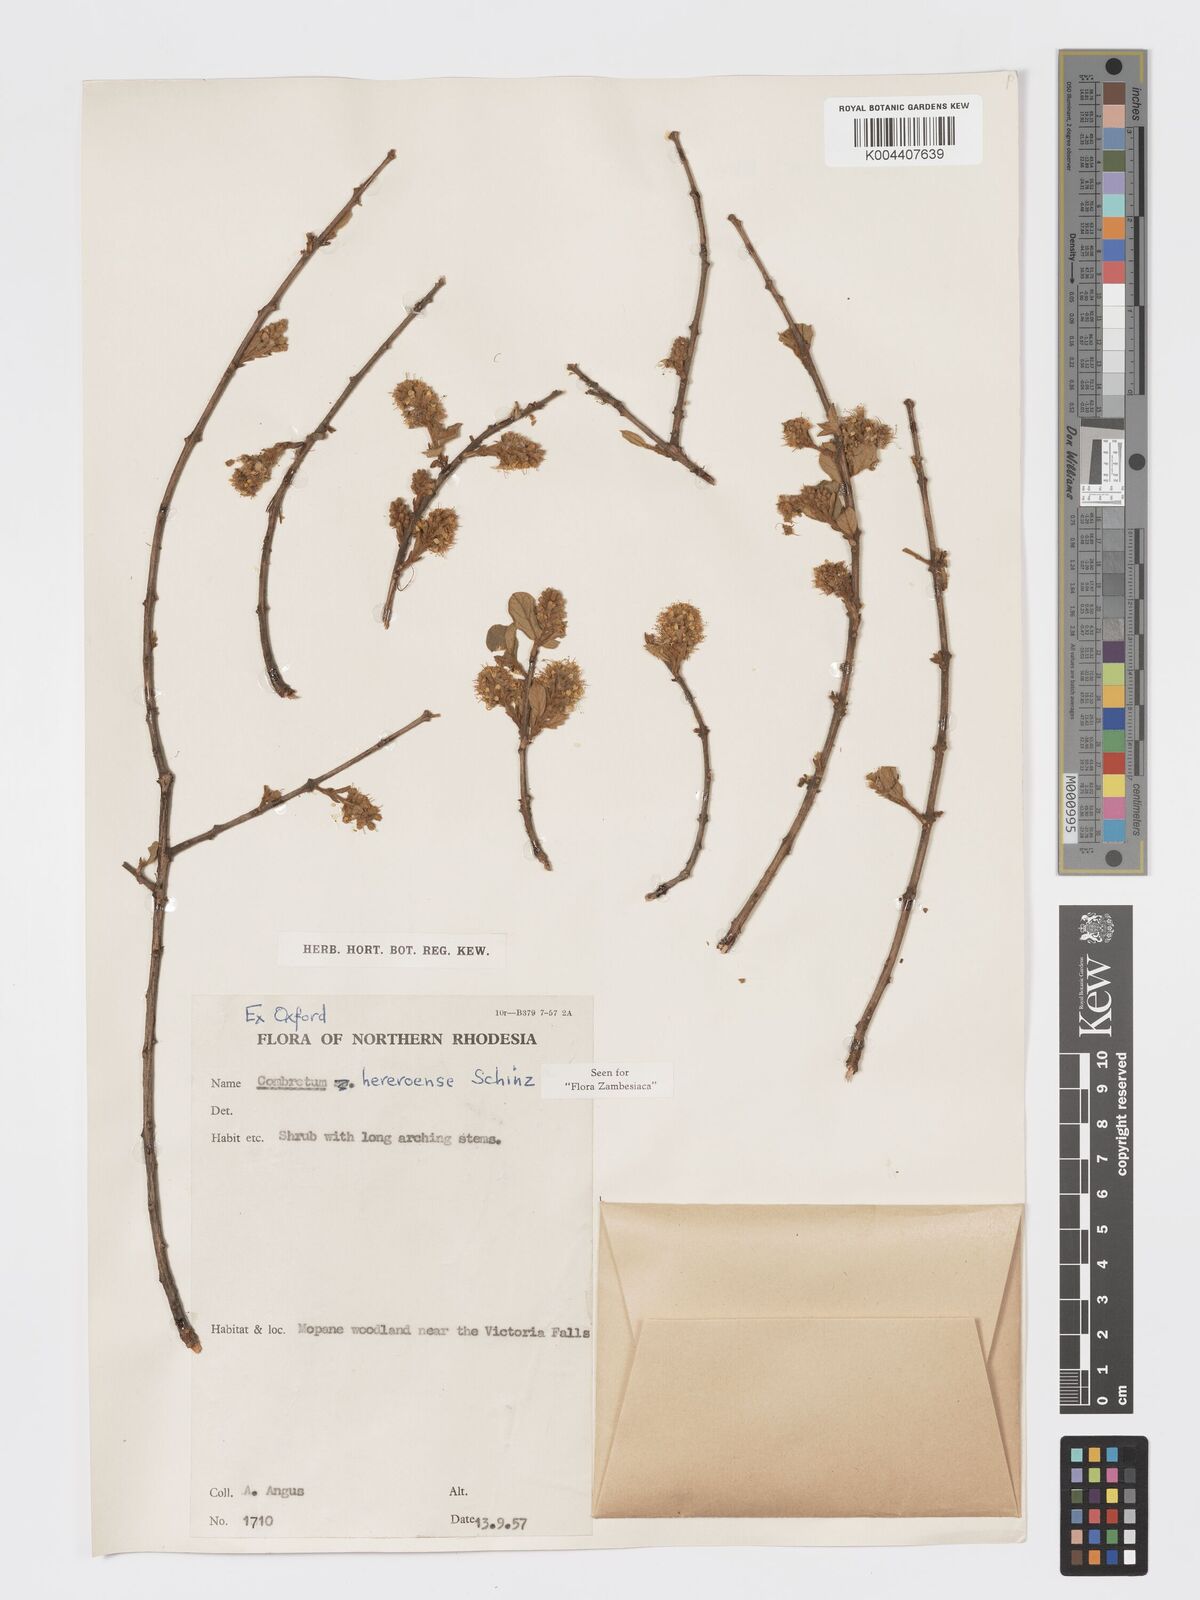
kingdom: Plantae
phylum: Tracheophyta
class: Magnoliopsida
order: Myrtales
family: Combretaceae
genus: Combretum
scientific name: Combretum hereroense
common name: Russet bushwillow
